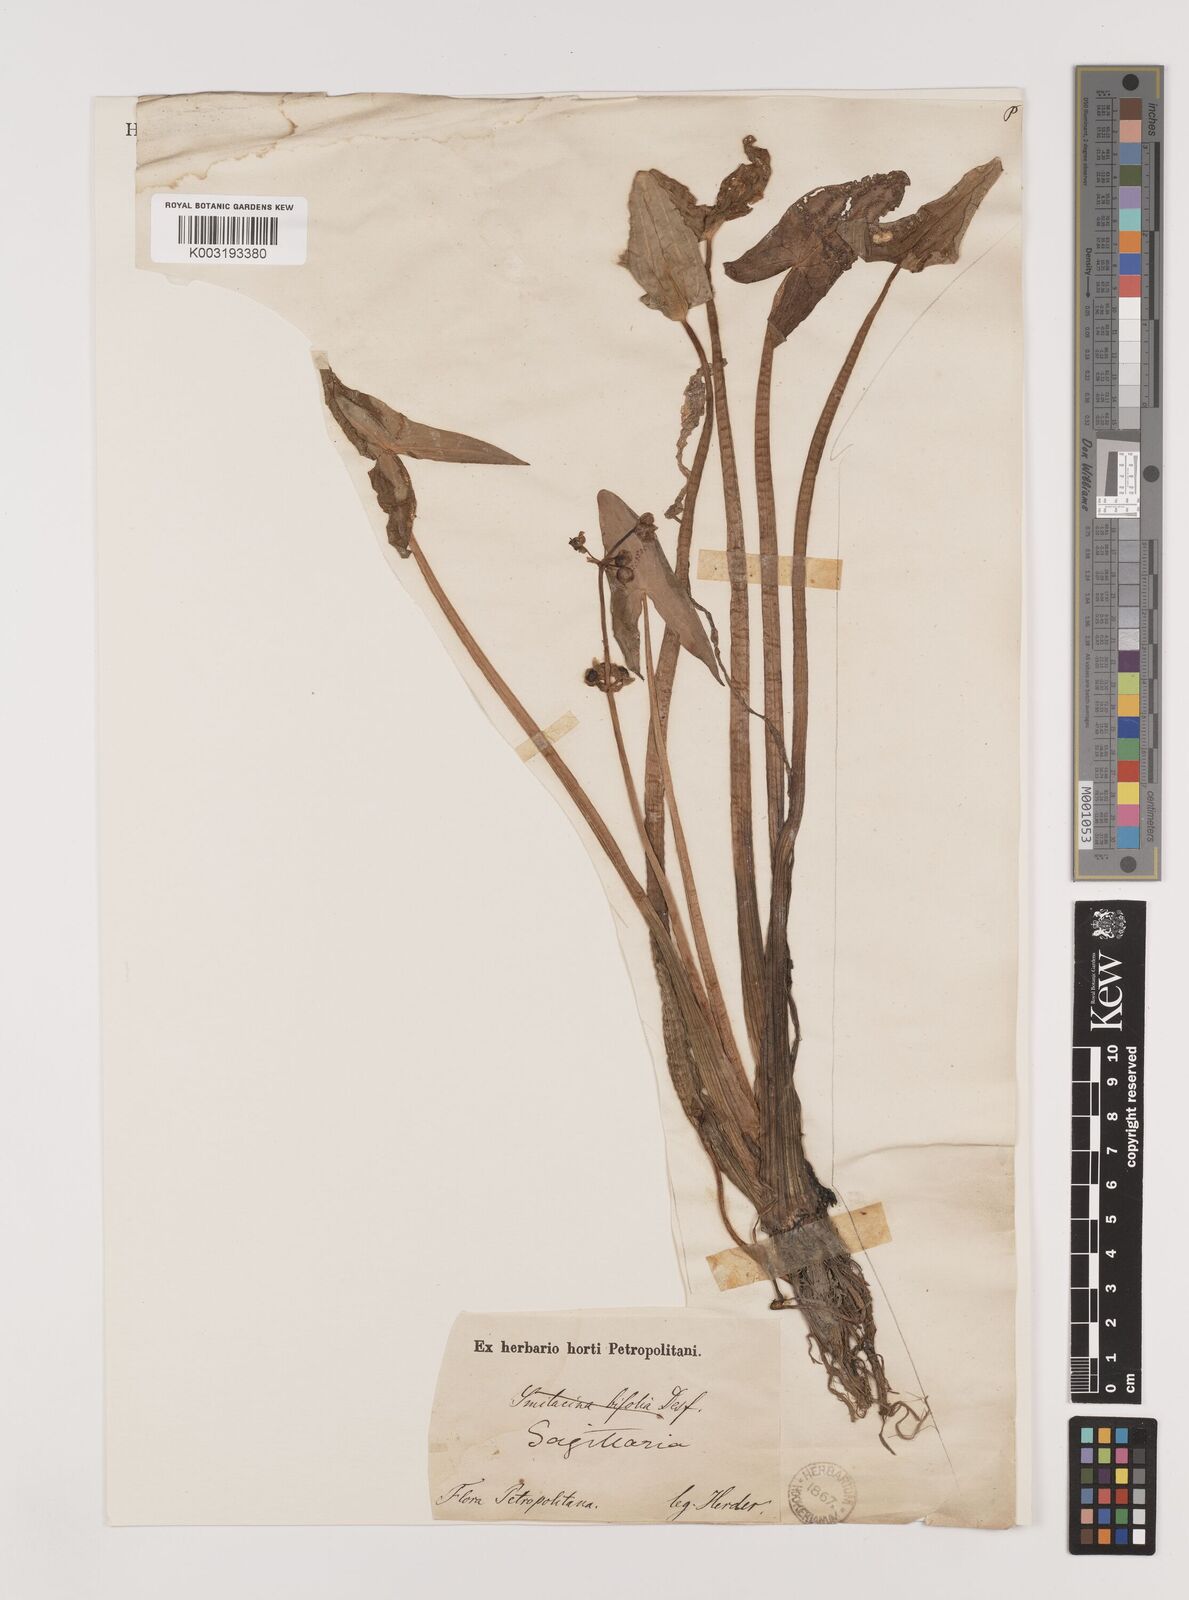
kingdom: Plantae
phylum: Tracheophyta
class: Liliopsida
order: Alismatales
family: Alismataceae
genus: Sagittaria
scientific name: Sagittaria sagittifolia
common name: Arrowhead
